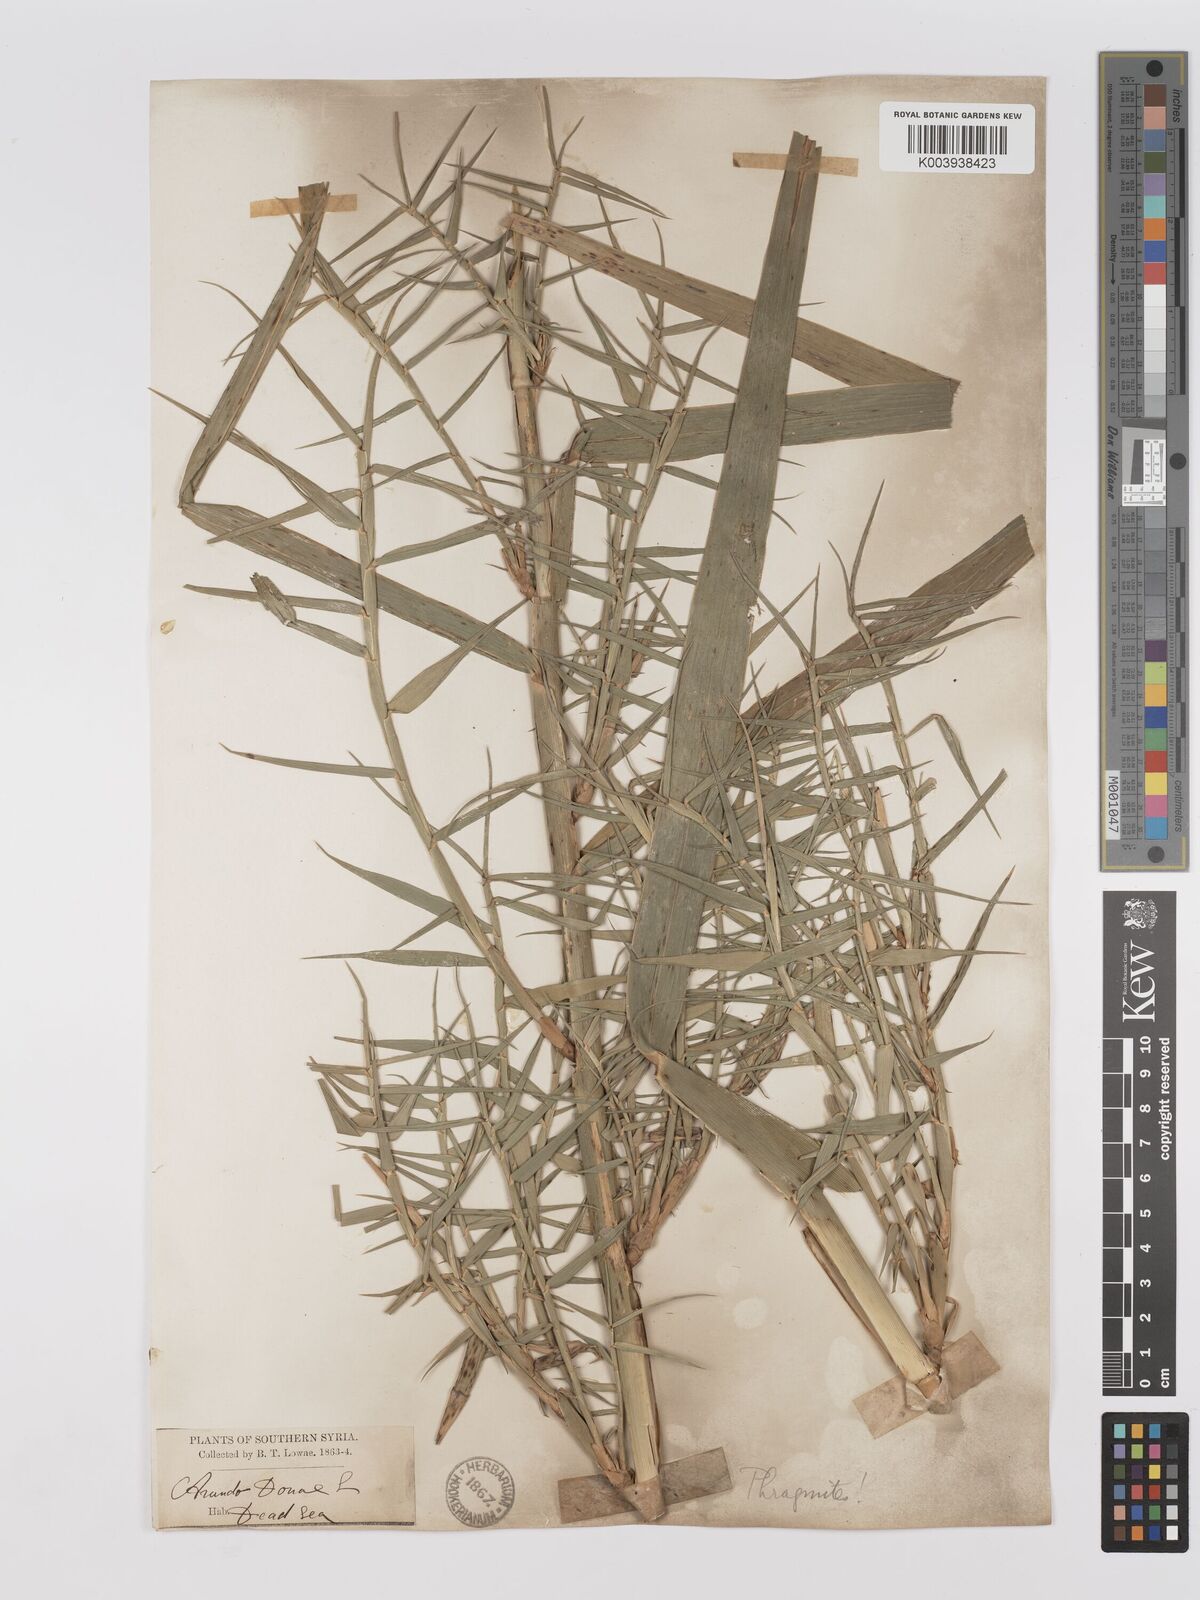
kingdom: Plantae
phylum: Tracheophyta
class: Liliopsida
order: Poales
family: Poaceae
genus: Phragmites
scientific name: Phragmites australis
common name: Common reed
